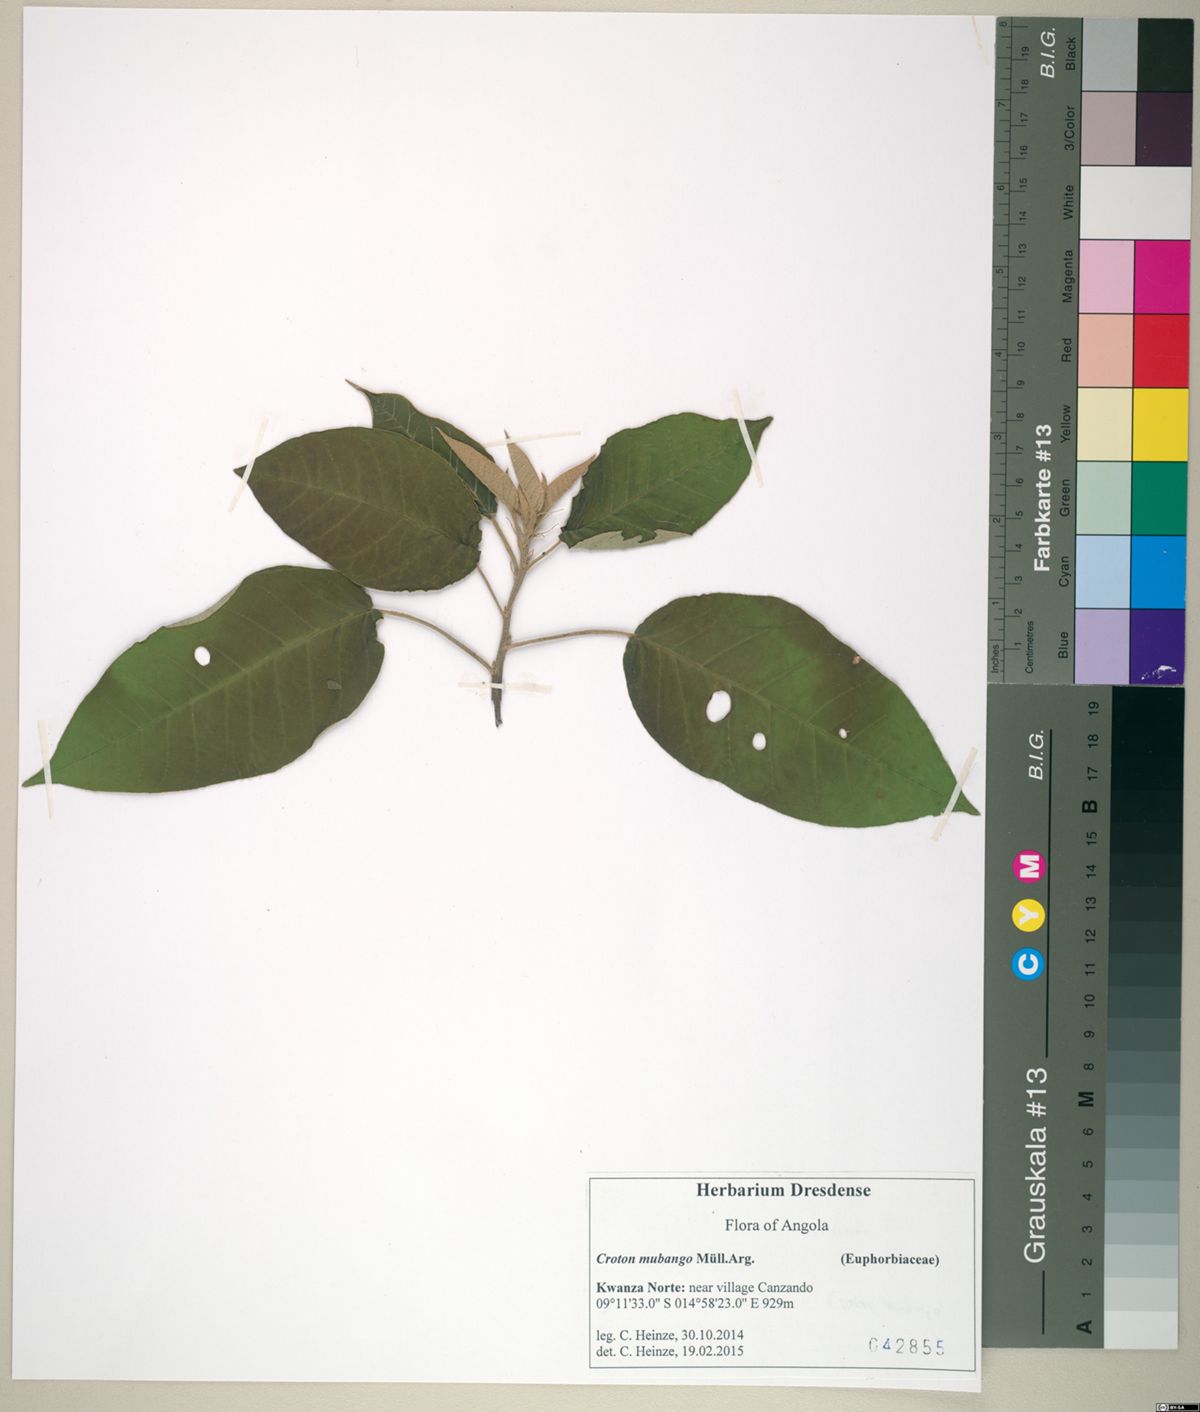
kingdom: Plantae
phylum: Tracheophyta
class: Magnoliopsida
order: Malpighiales
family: Euphorbiaceae
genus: Croton
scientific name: Croton mubango
